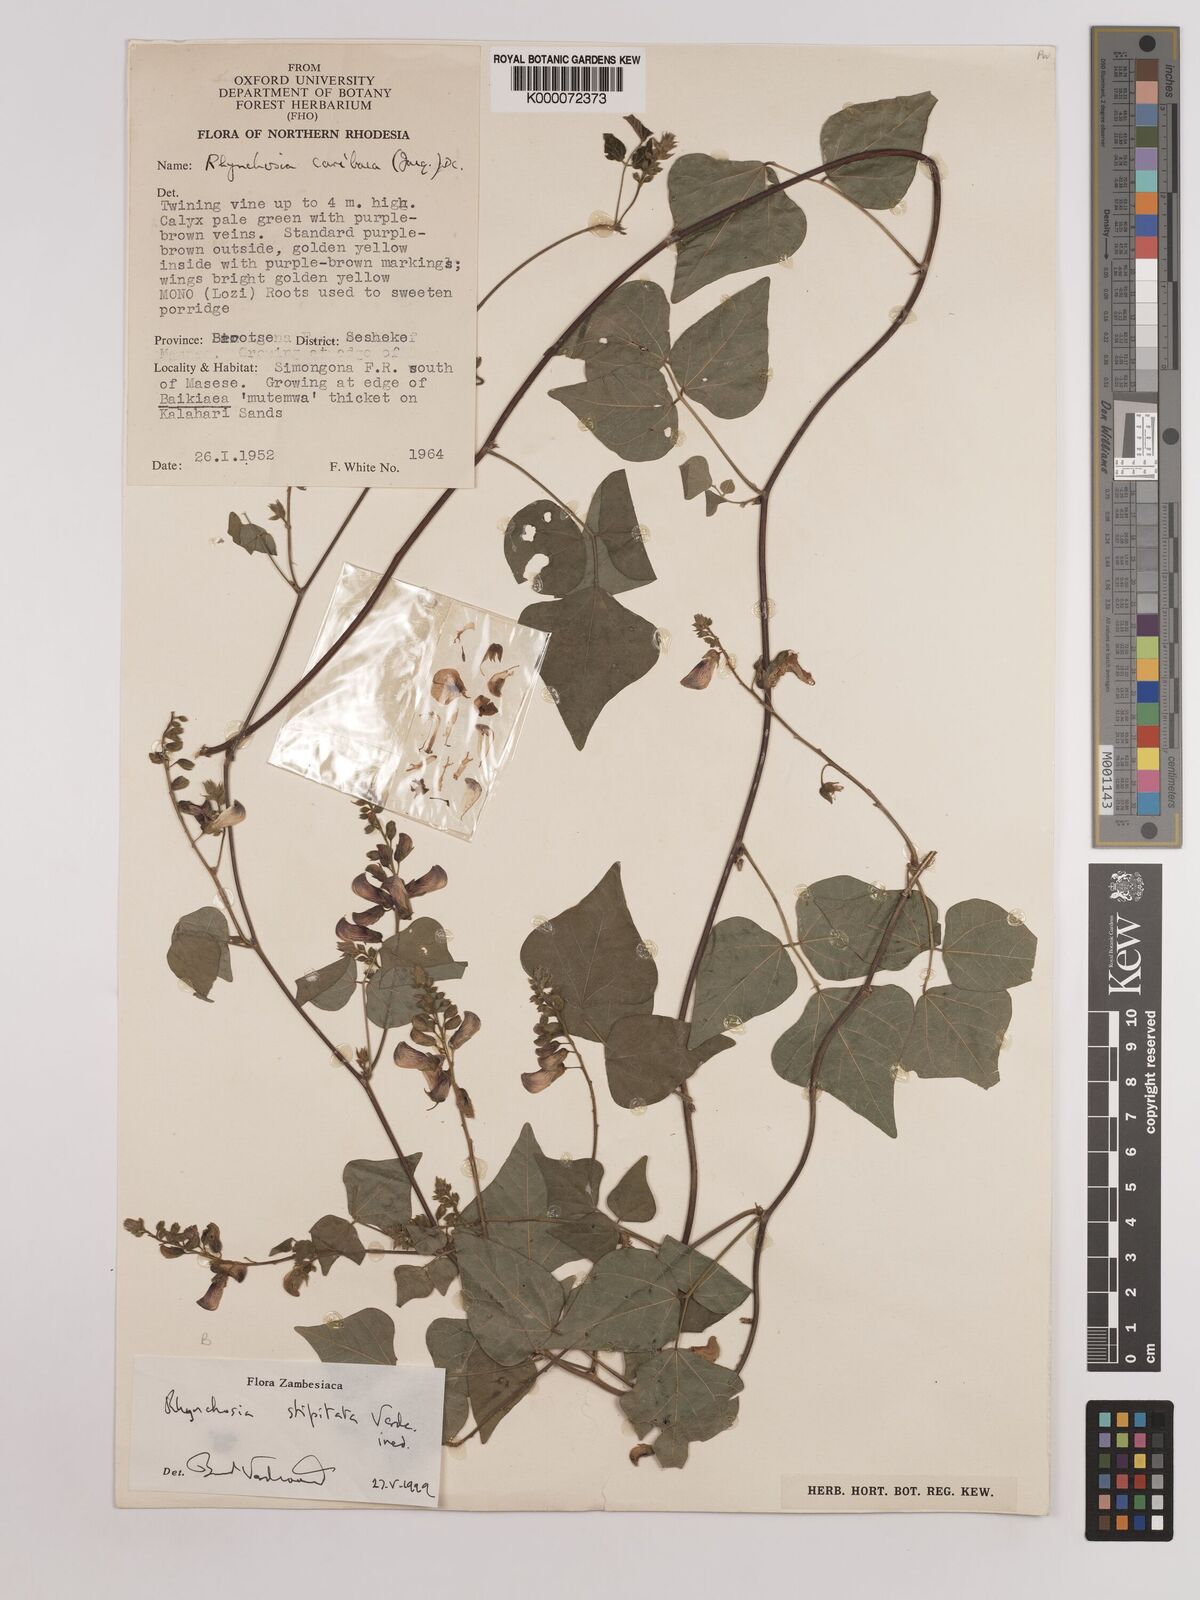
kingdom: Plantae
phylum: Tracheophyta
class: Magnoliopsida
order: Fabales
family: Fabaceae
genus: Rhynchosia
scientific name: Rhynchosia stipitata
